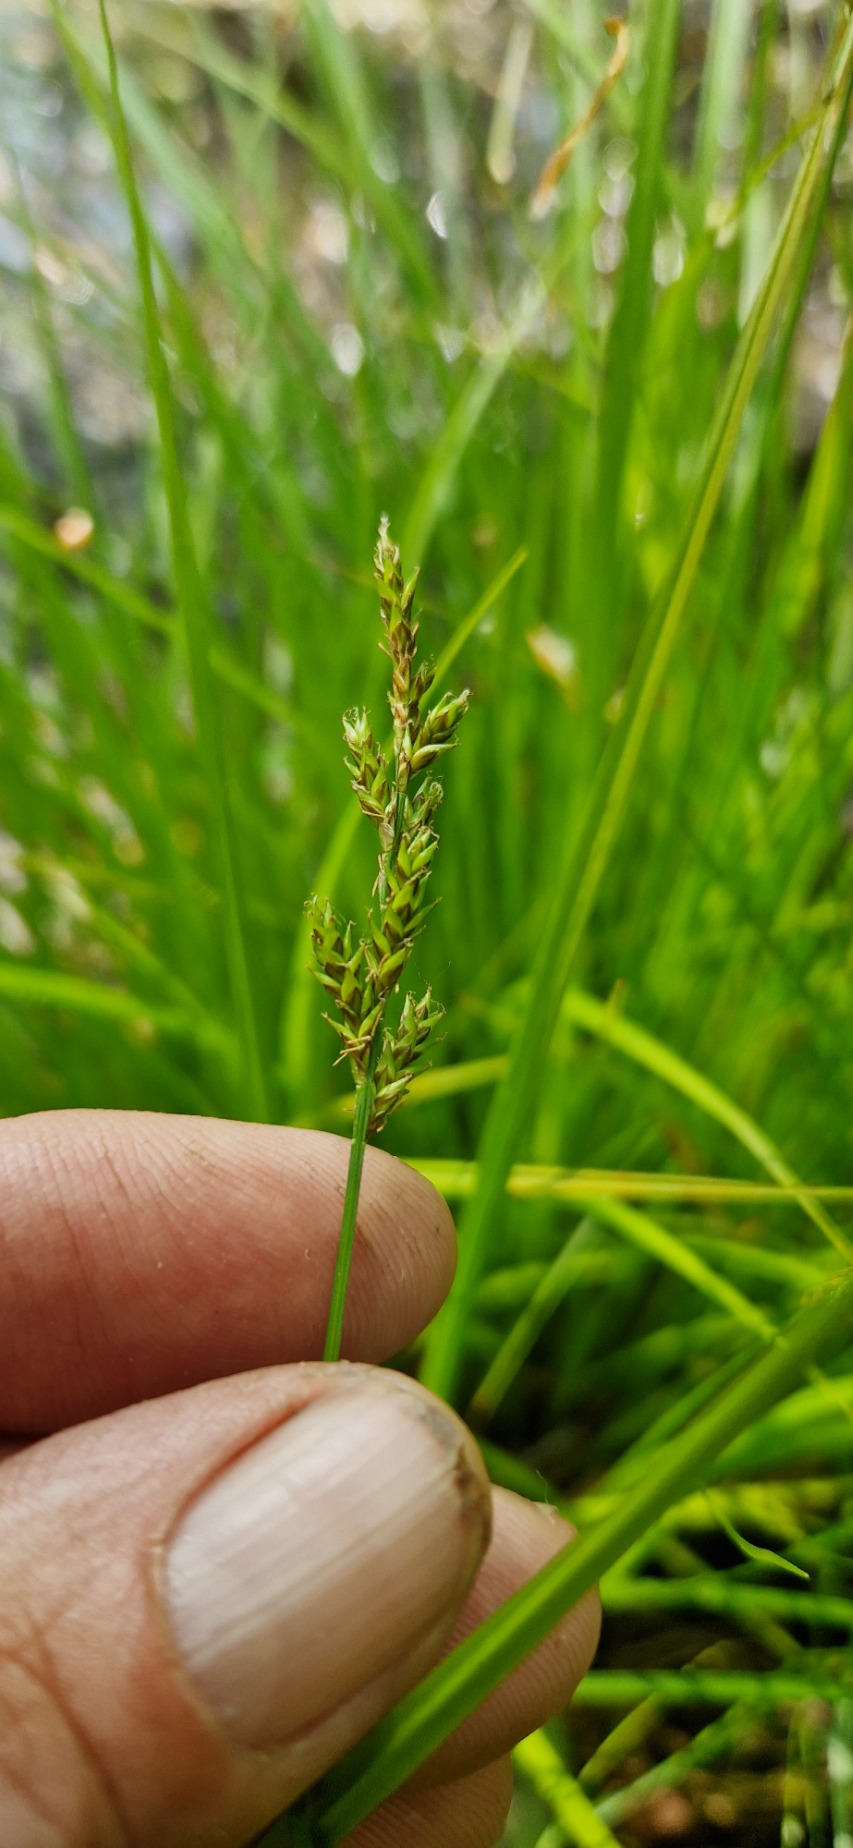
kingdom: Plantae
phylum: Tracheophyta
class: Liliopsida
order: Poales
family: Cyperaceae
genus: Carex
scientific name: Carex elongata
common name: Forlænget star
